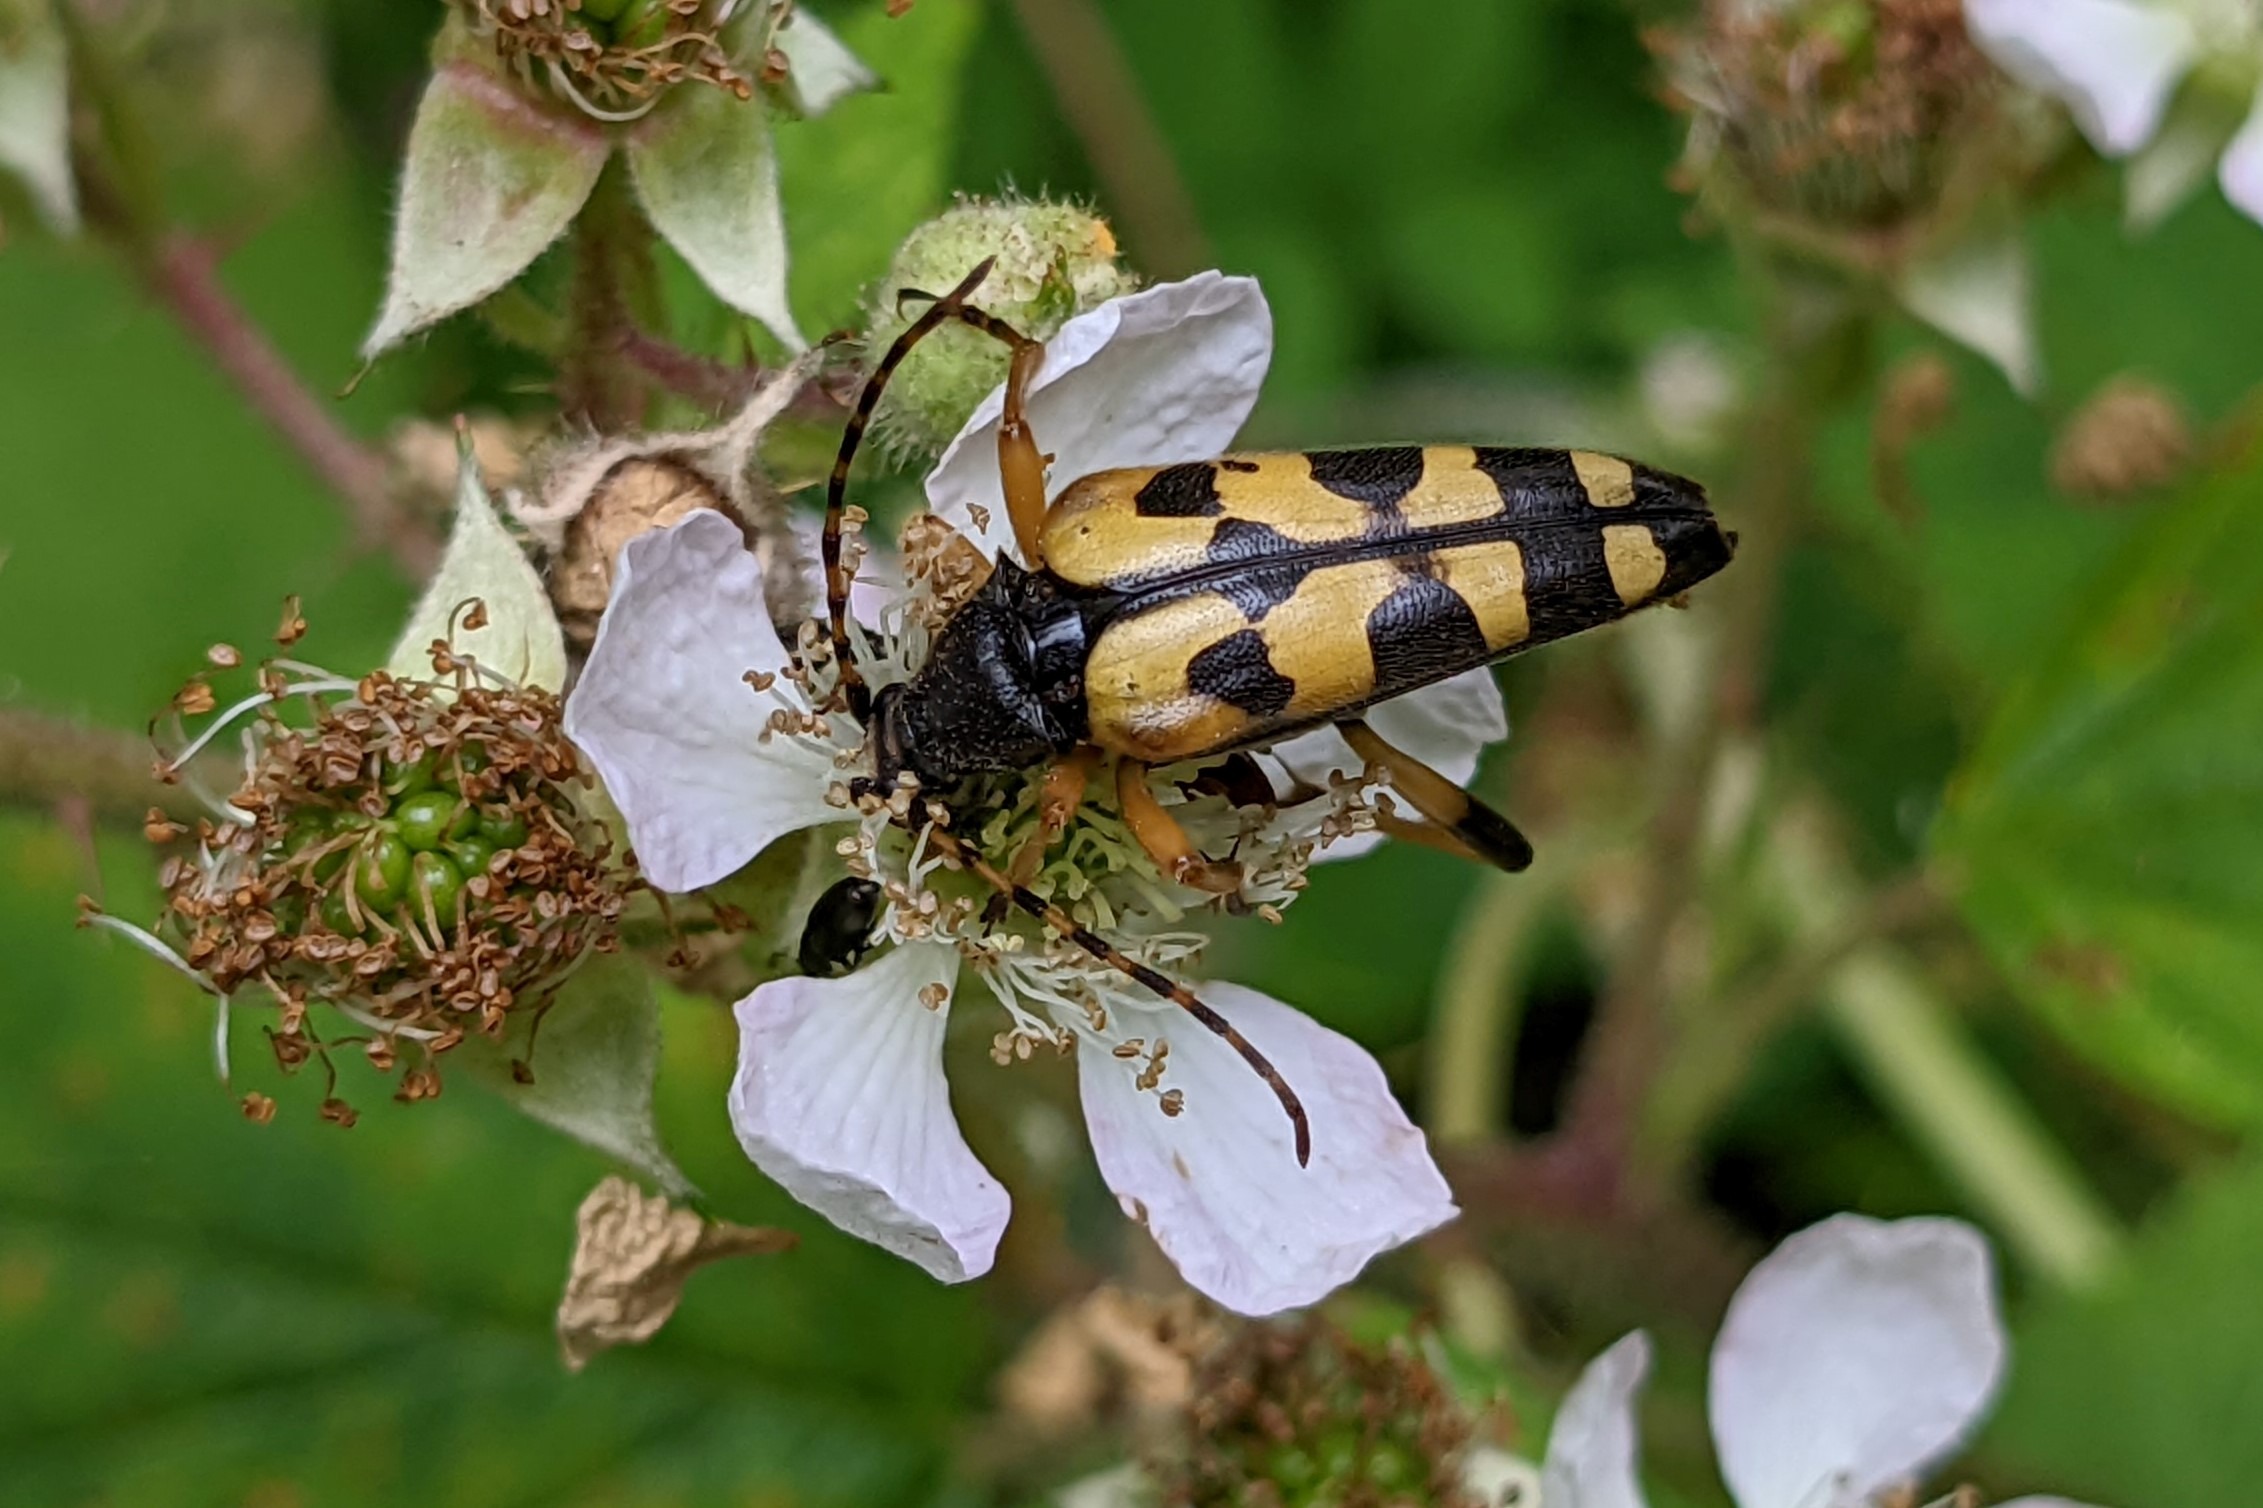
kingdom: Animalia
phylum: Arthropoda
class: Insecta
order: Coleoptera
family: Cerambycidae
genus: Rutpela
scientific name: Rutpela maculata
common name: Sydlig blomsterbuk
